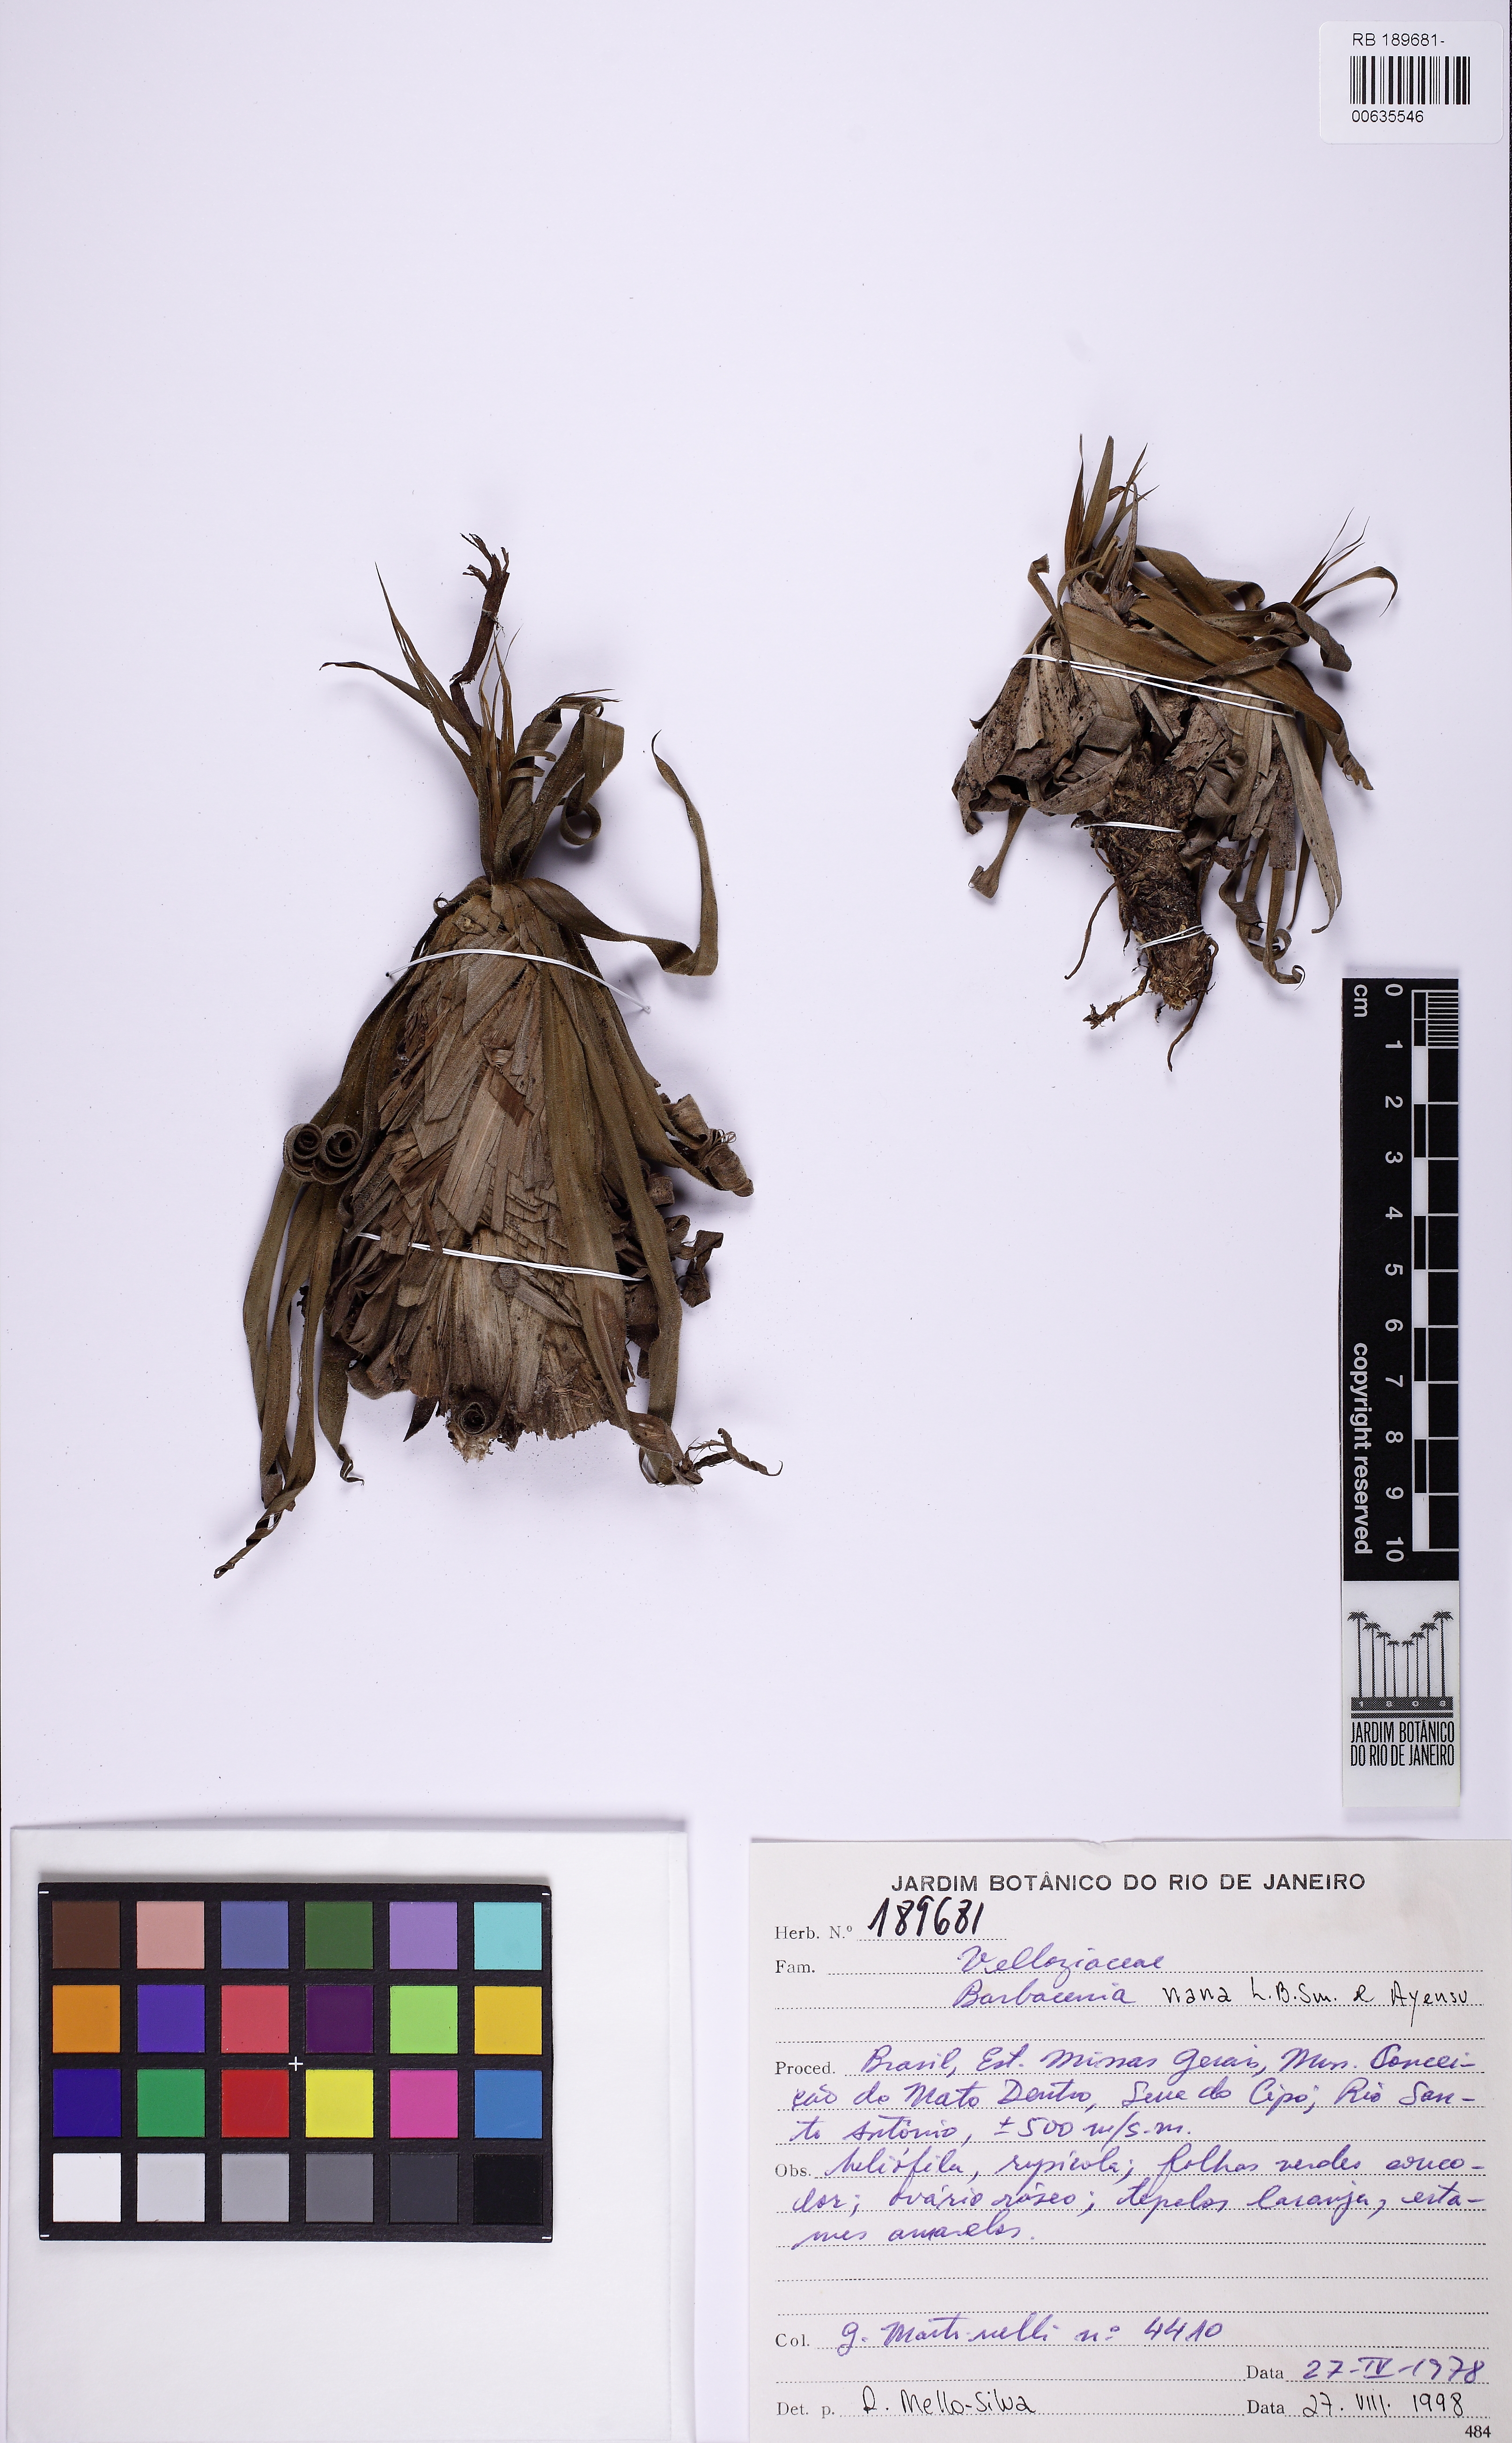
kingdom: Plantae
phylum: Tracheophyta
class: Liliopsida
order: Pandanales
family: Velloziaceae
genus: Barbacenia
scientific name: Barbacenia nana
